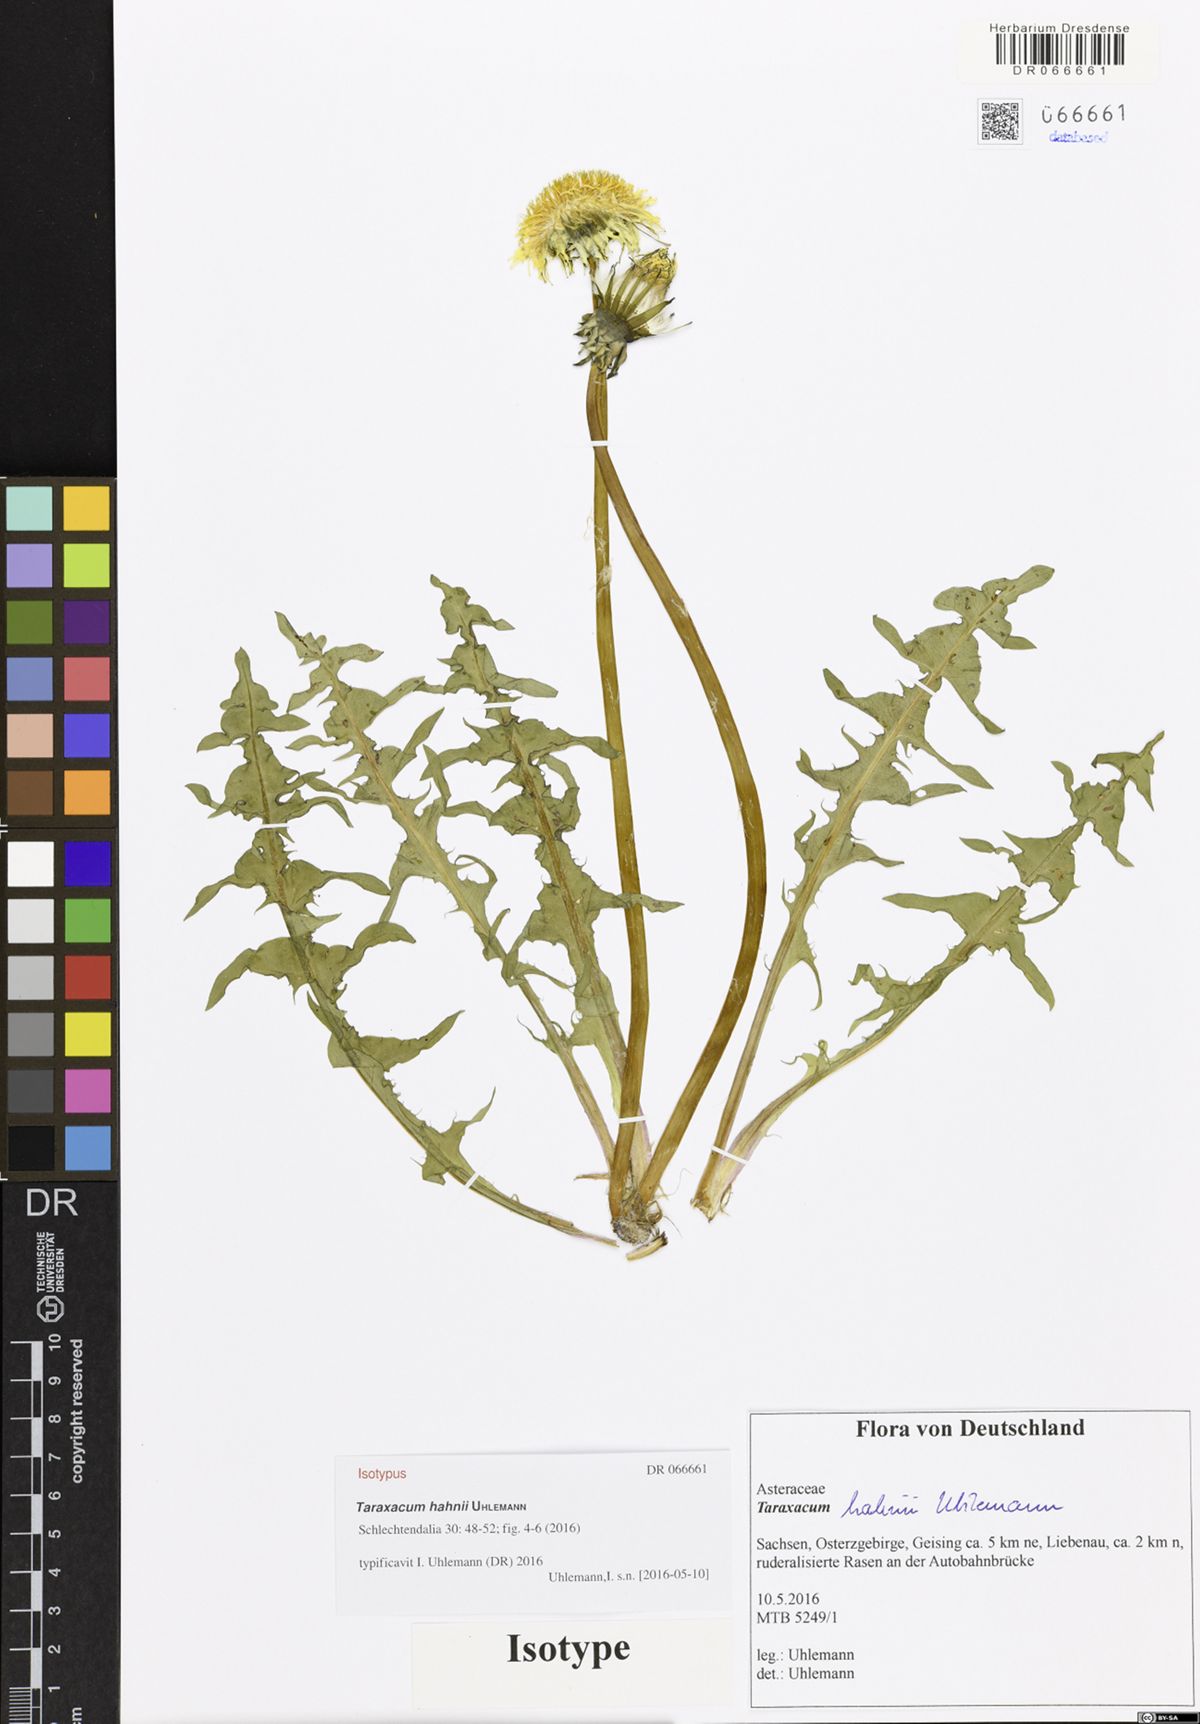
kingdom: Plantae
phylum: Tracheophyta
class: Magnoliopsida
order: Asterales
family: Asteraceae
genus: Taraxacum
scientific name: Taraxacum hahnii
